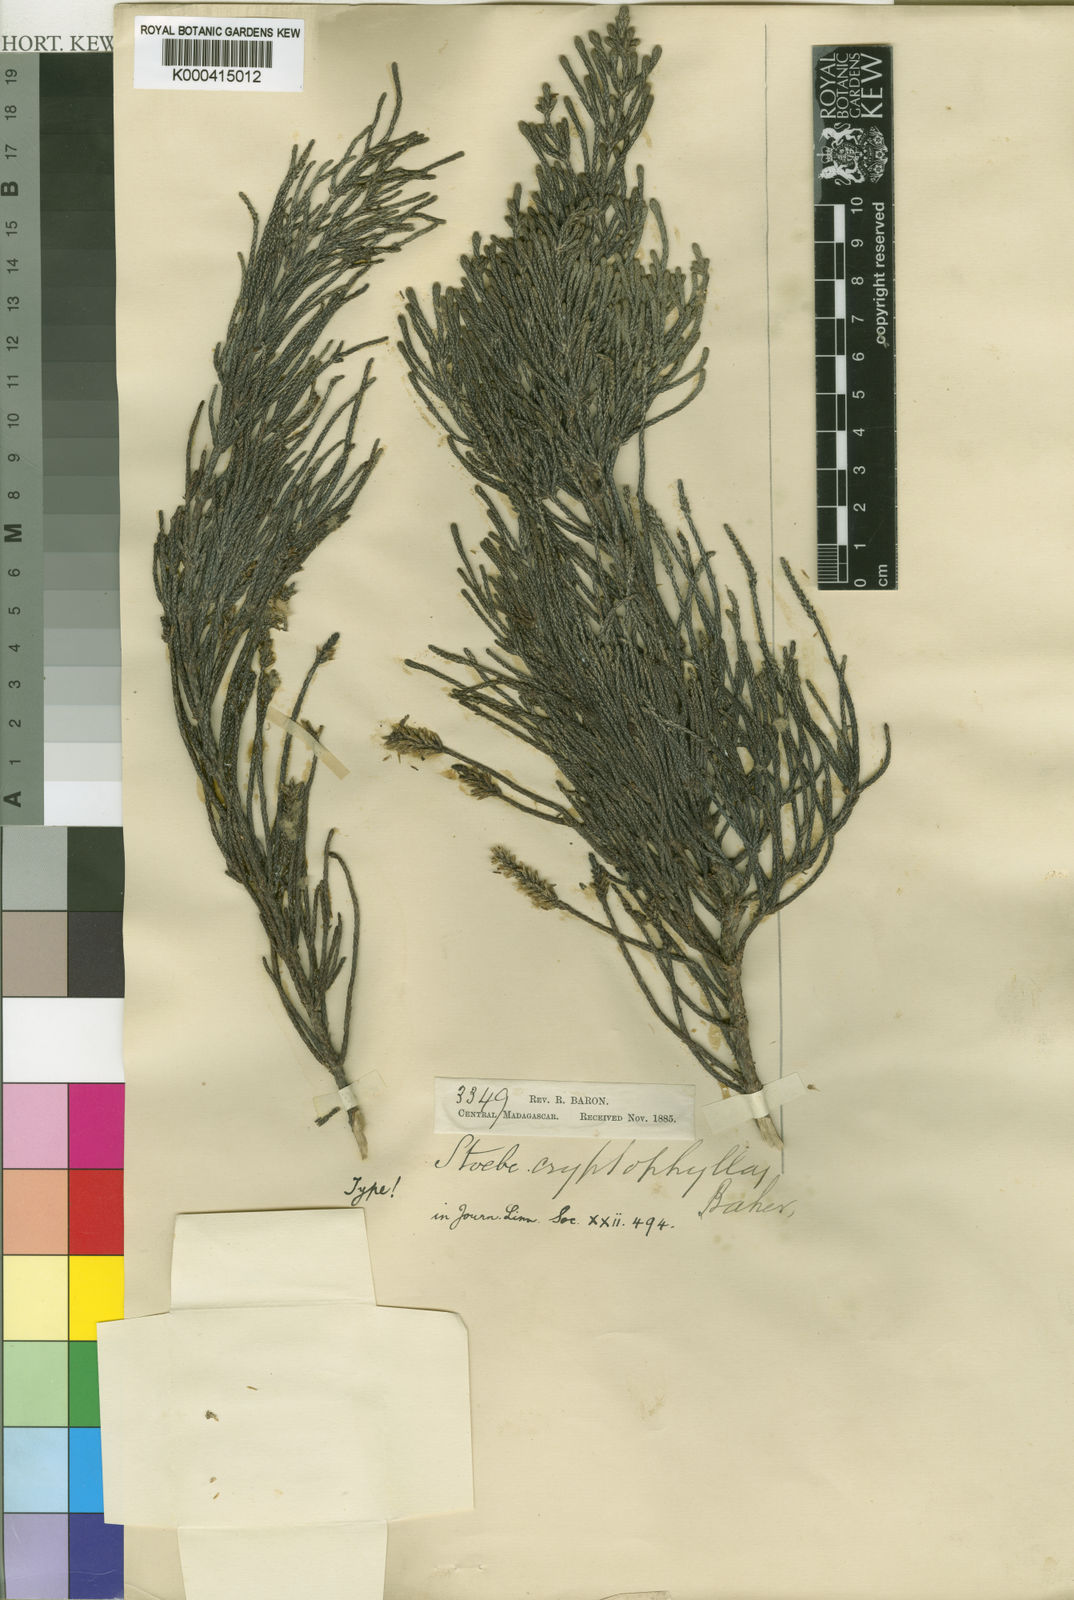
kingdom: Plantae
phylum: Tracheophyta
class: Magnoliopsida
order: Asterales
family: Asteraceae
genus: Seriphium
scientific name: Seriphium cryptophyllum
